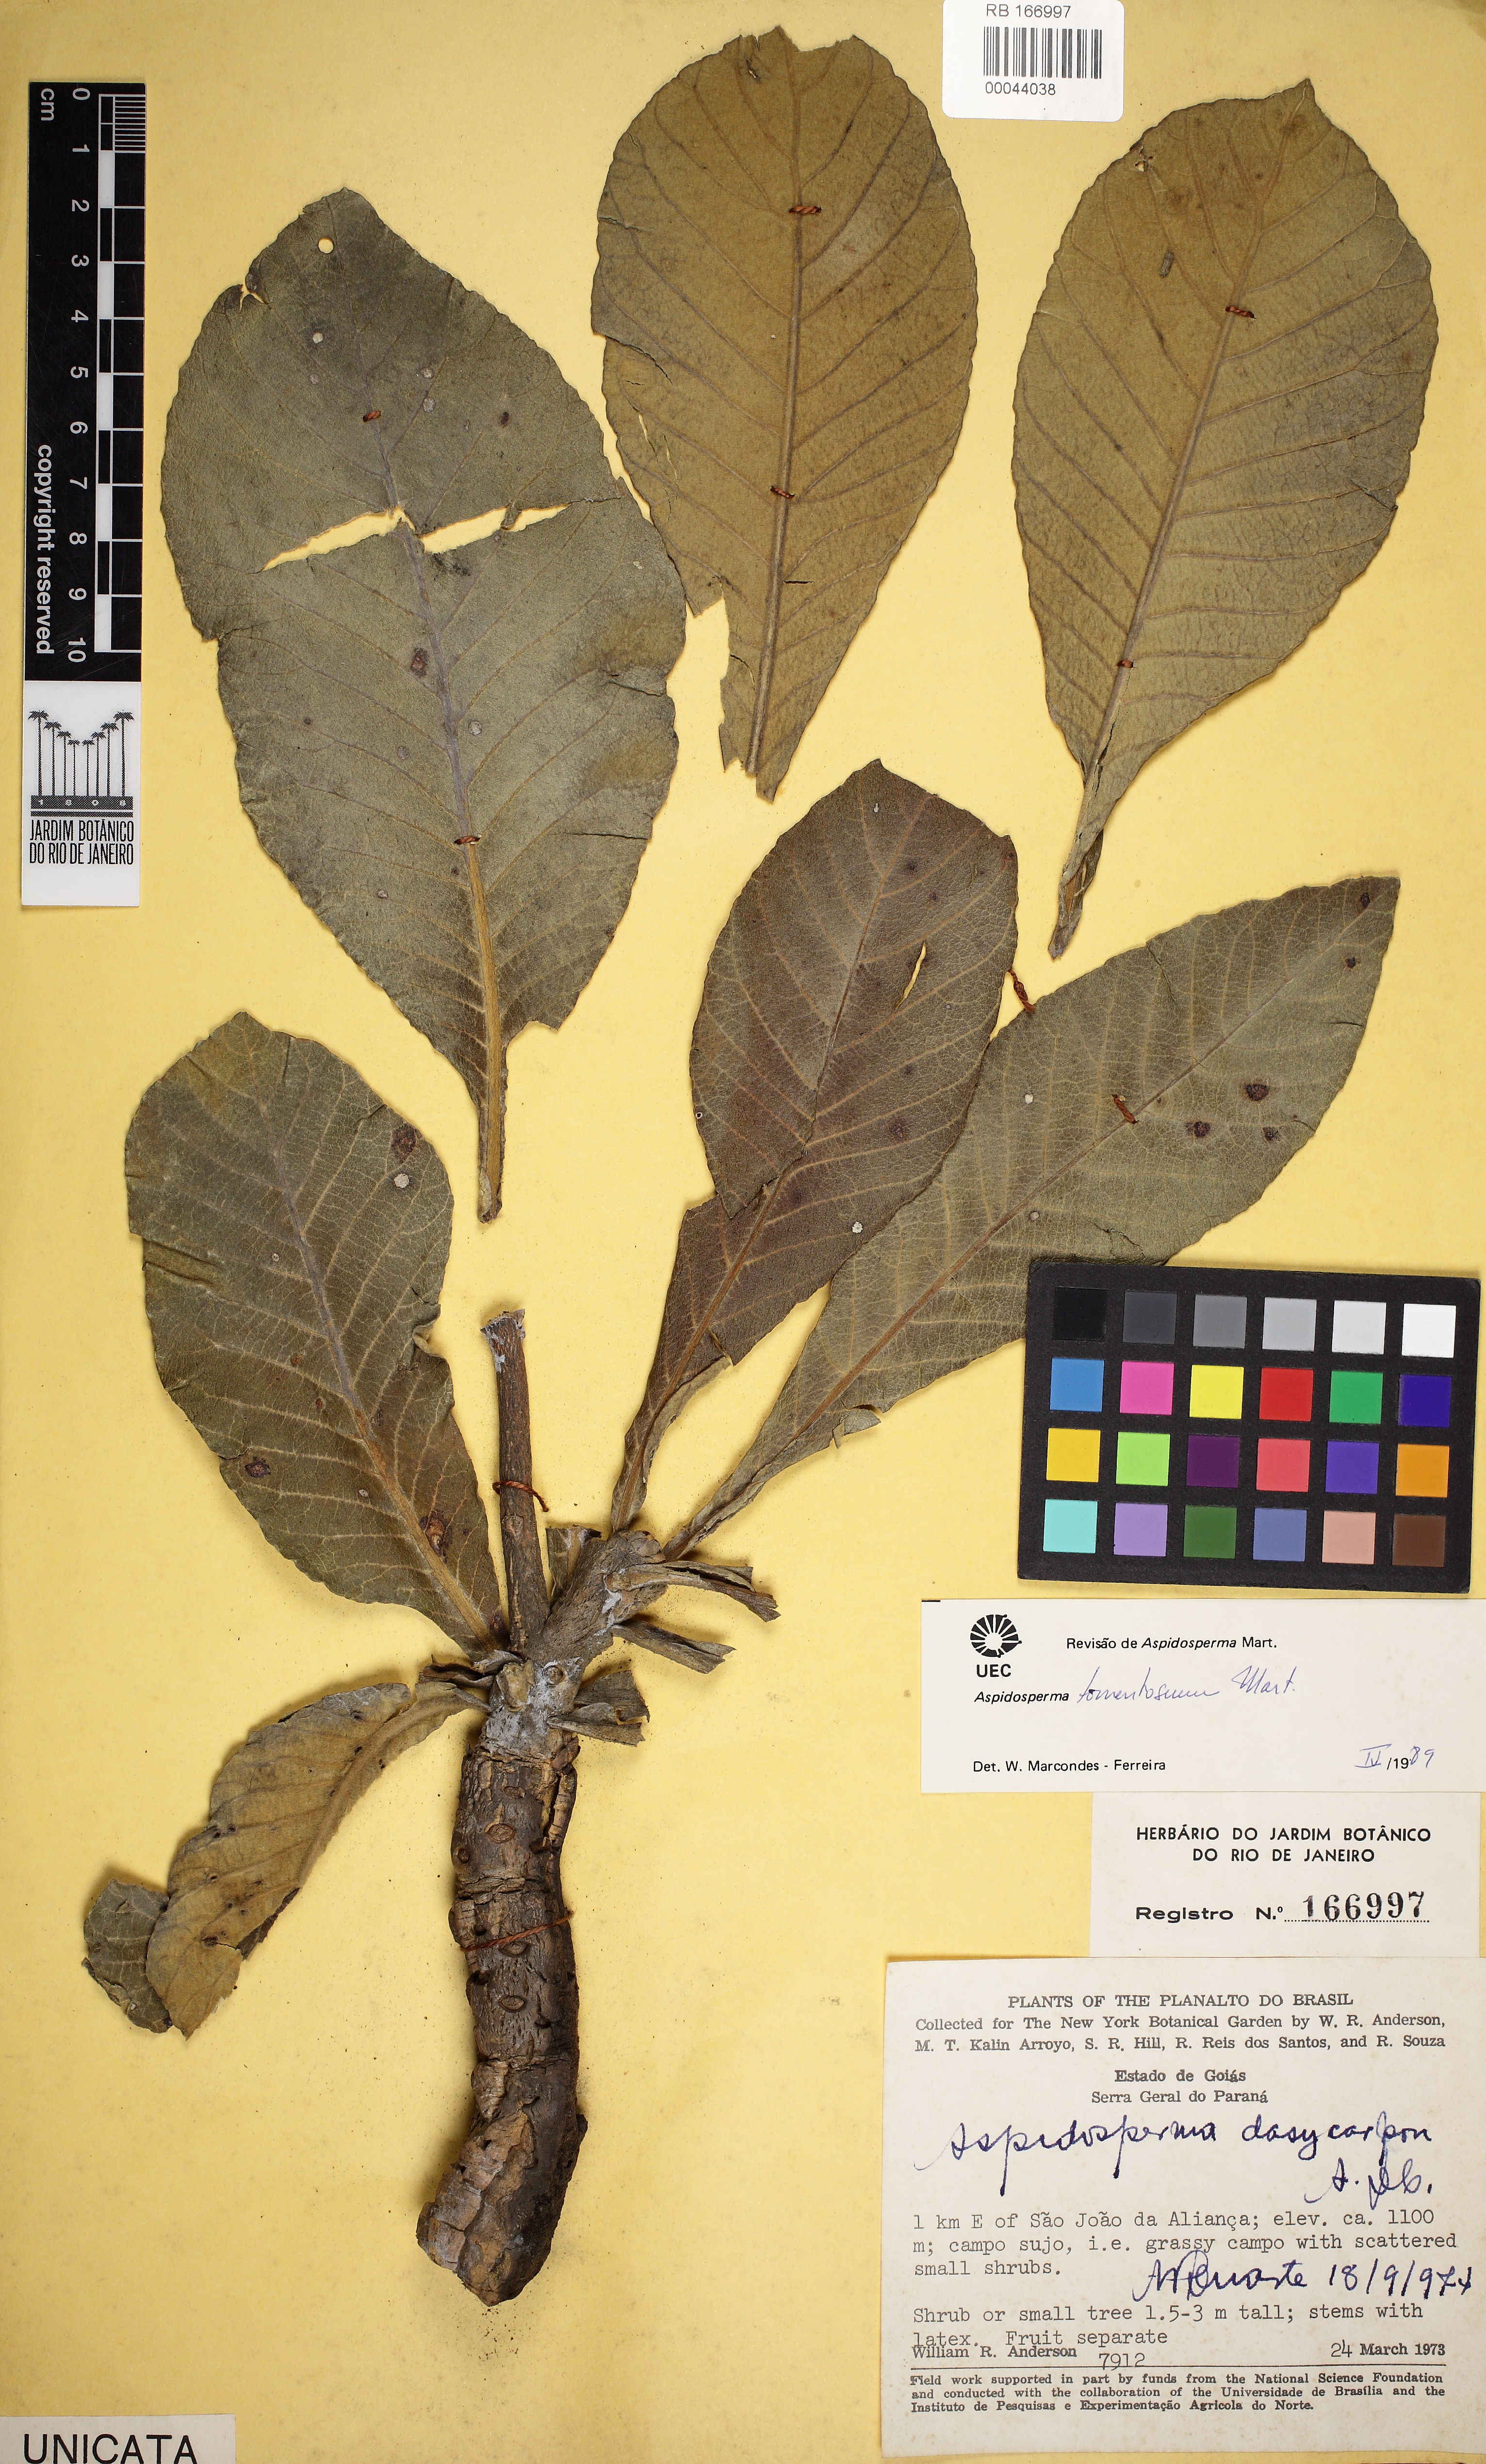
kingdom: Plantae
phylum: Tracheophyta
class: Magnoliopsida
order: Gentianales
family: Apocynaceae
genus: Aspidosperma
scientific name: Aspidosperma tomentosum
